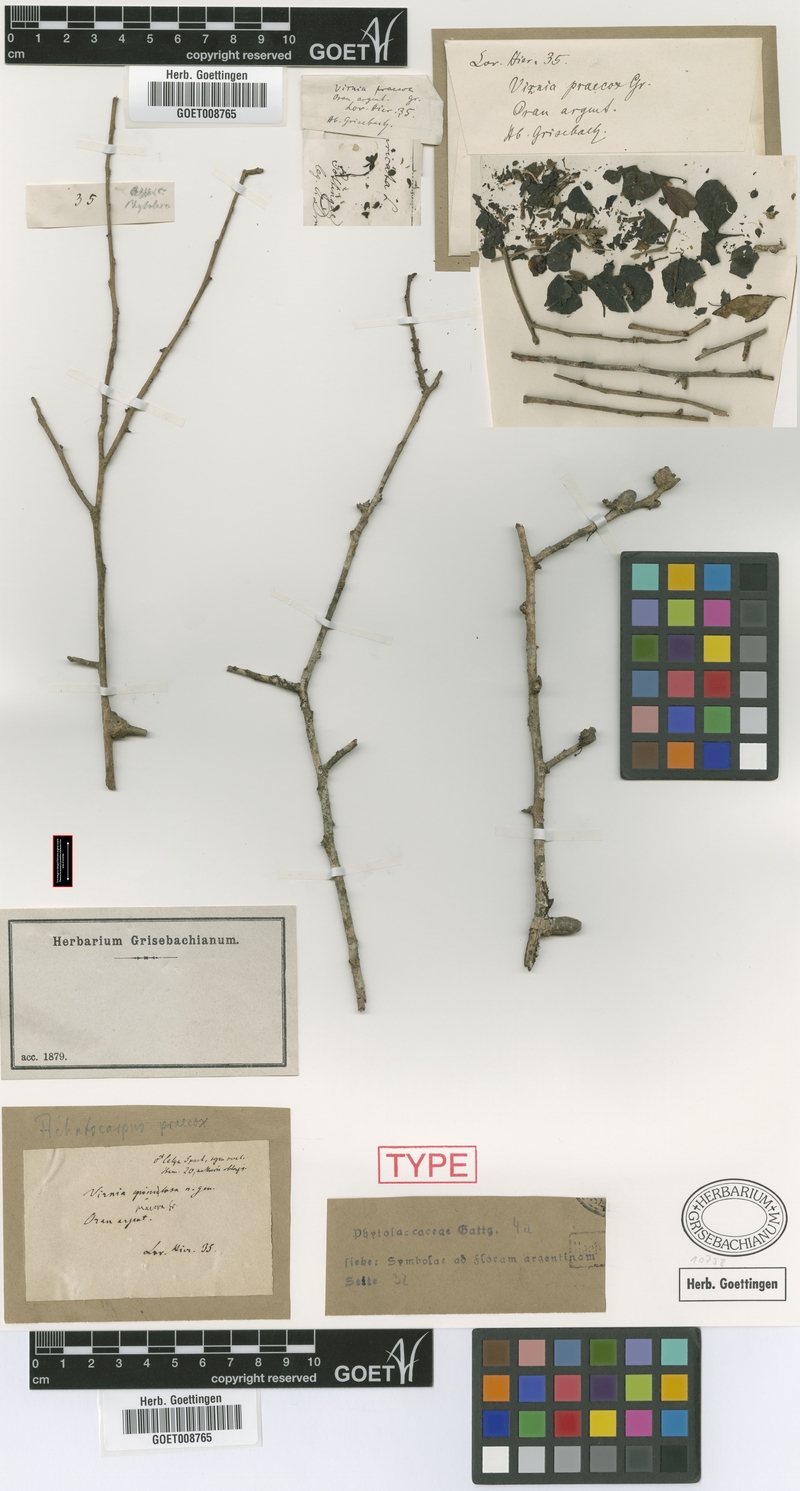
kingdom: Plantae
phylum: Tracheophyta
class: Magnoliopsida
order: Caryophyllales
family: Achatocarpaceae
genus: Achatocarpus
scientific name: Achatocarpus praecox
